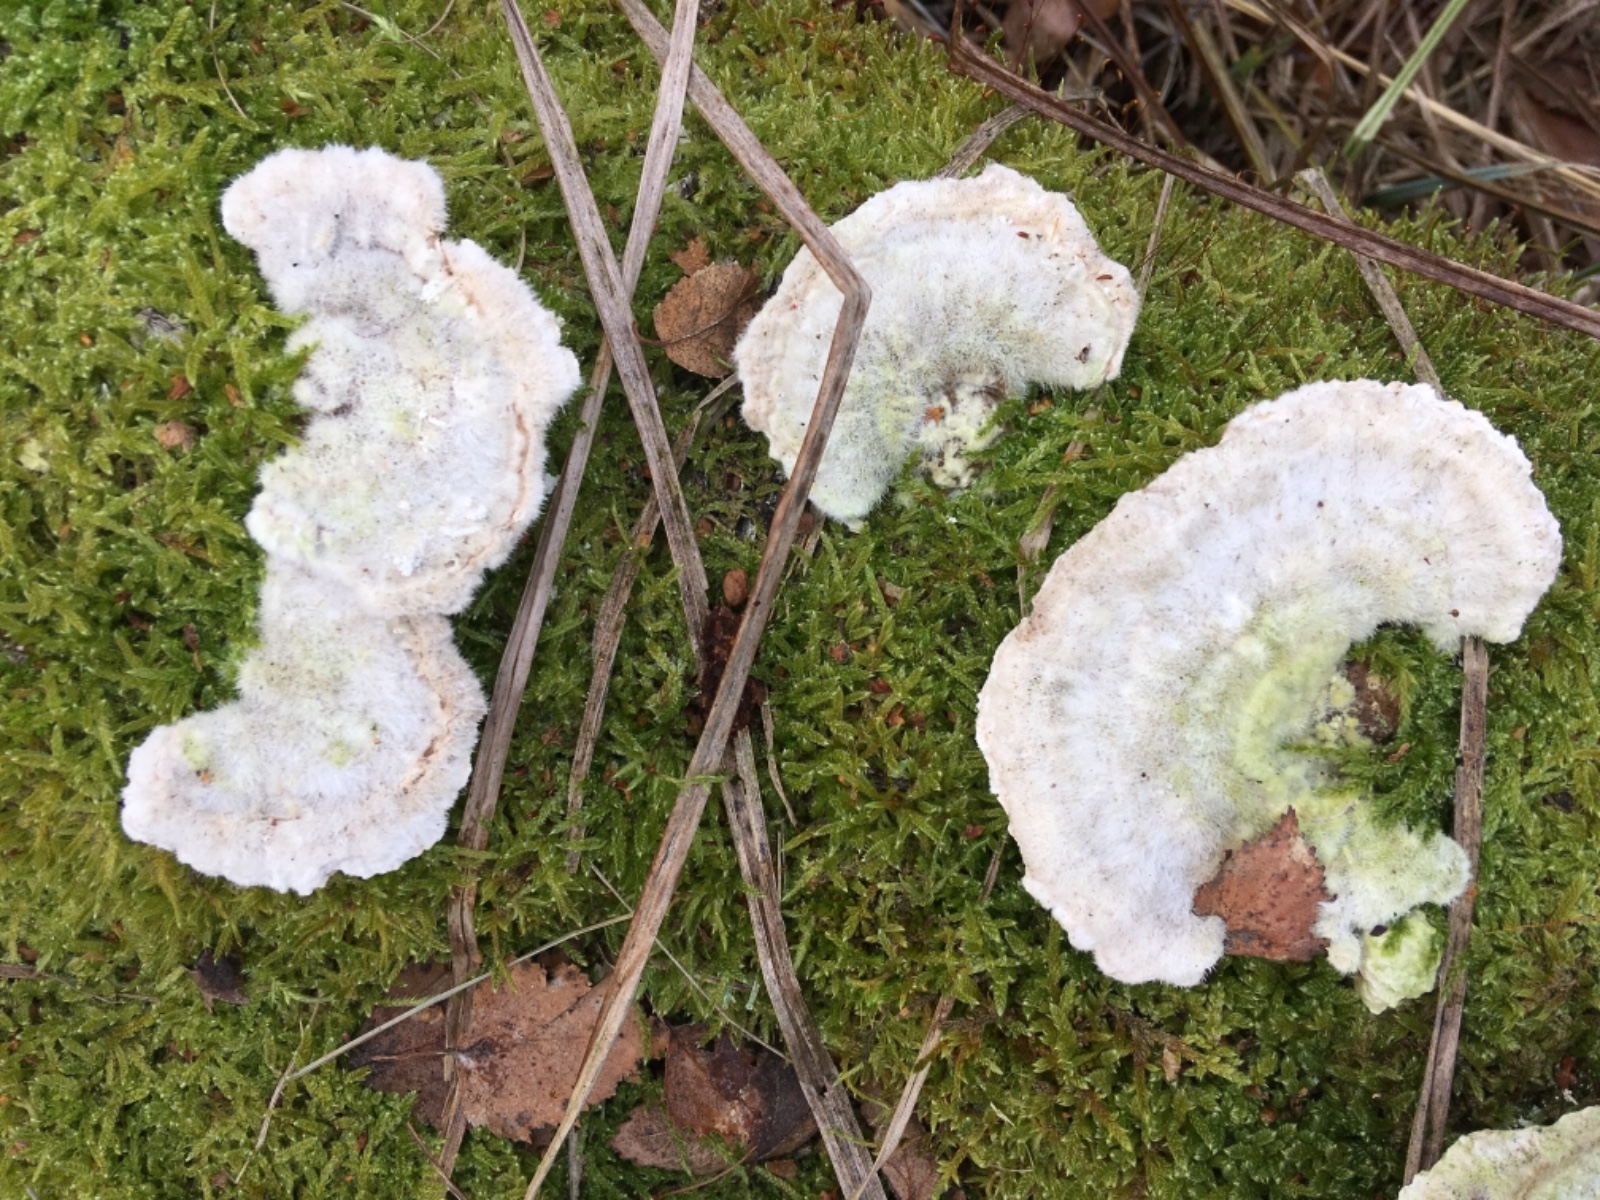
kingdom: Fungi
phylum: Basidiomycota
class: Agaricomycetes
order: Polyporales
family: Polyporaceae
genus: Trametes
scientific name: Trametes hirsuta
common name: håret læderporesvamp
